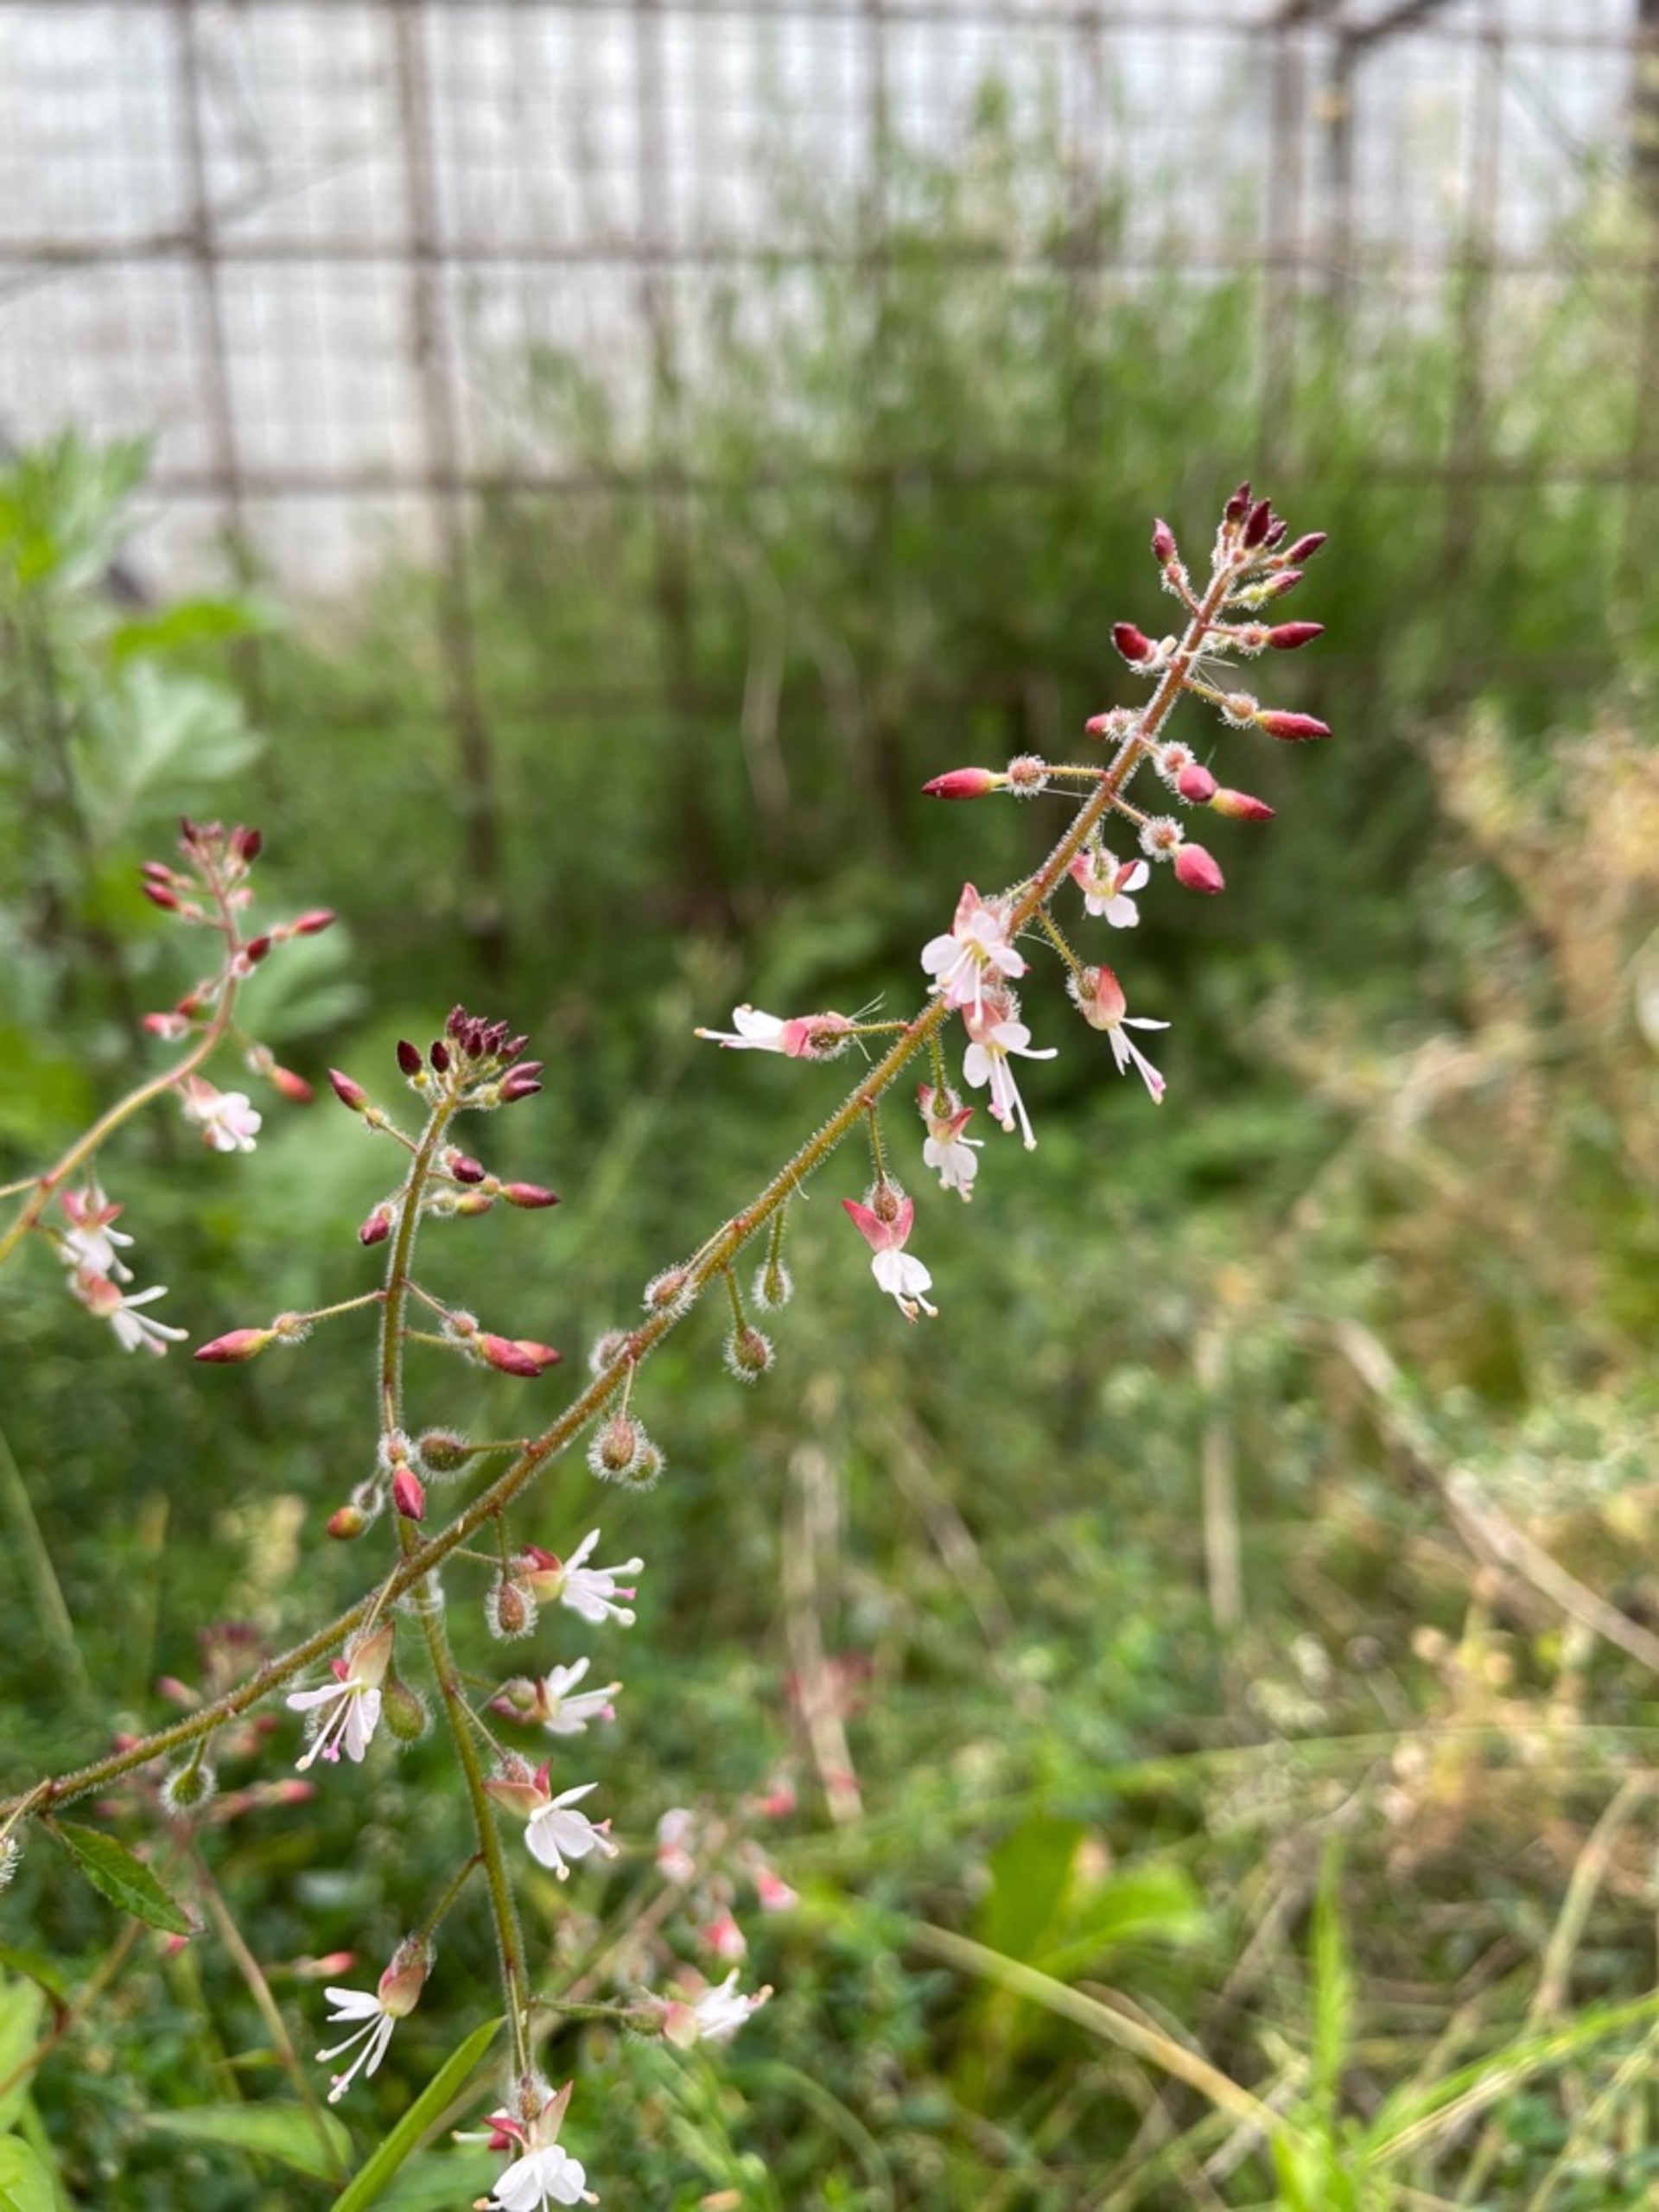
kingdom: Plantae
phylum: Tracheophyta
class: Magnoliopsida
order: Myrtales
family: Onagraceae
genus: Circaea
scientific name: Circaea lutetiana
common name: Dunet steffensurt
